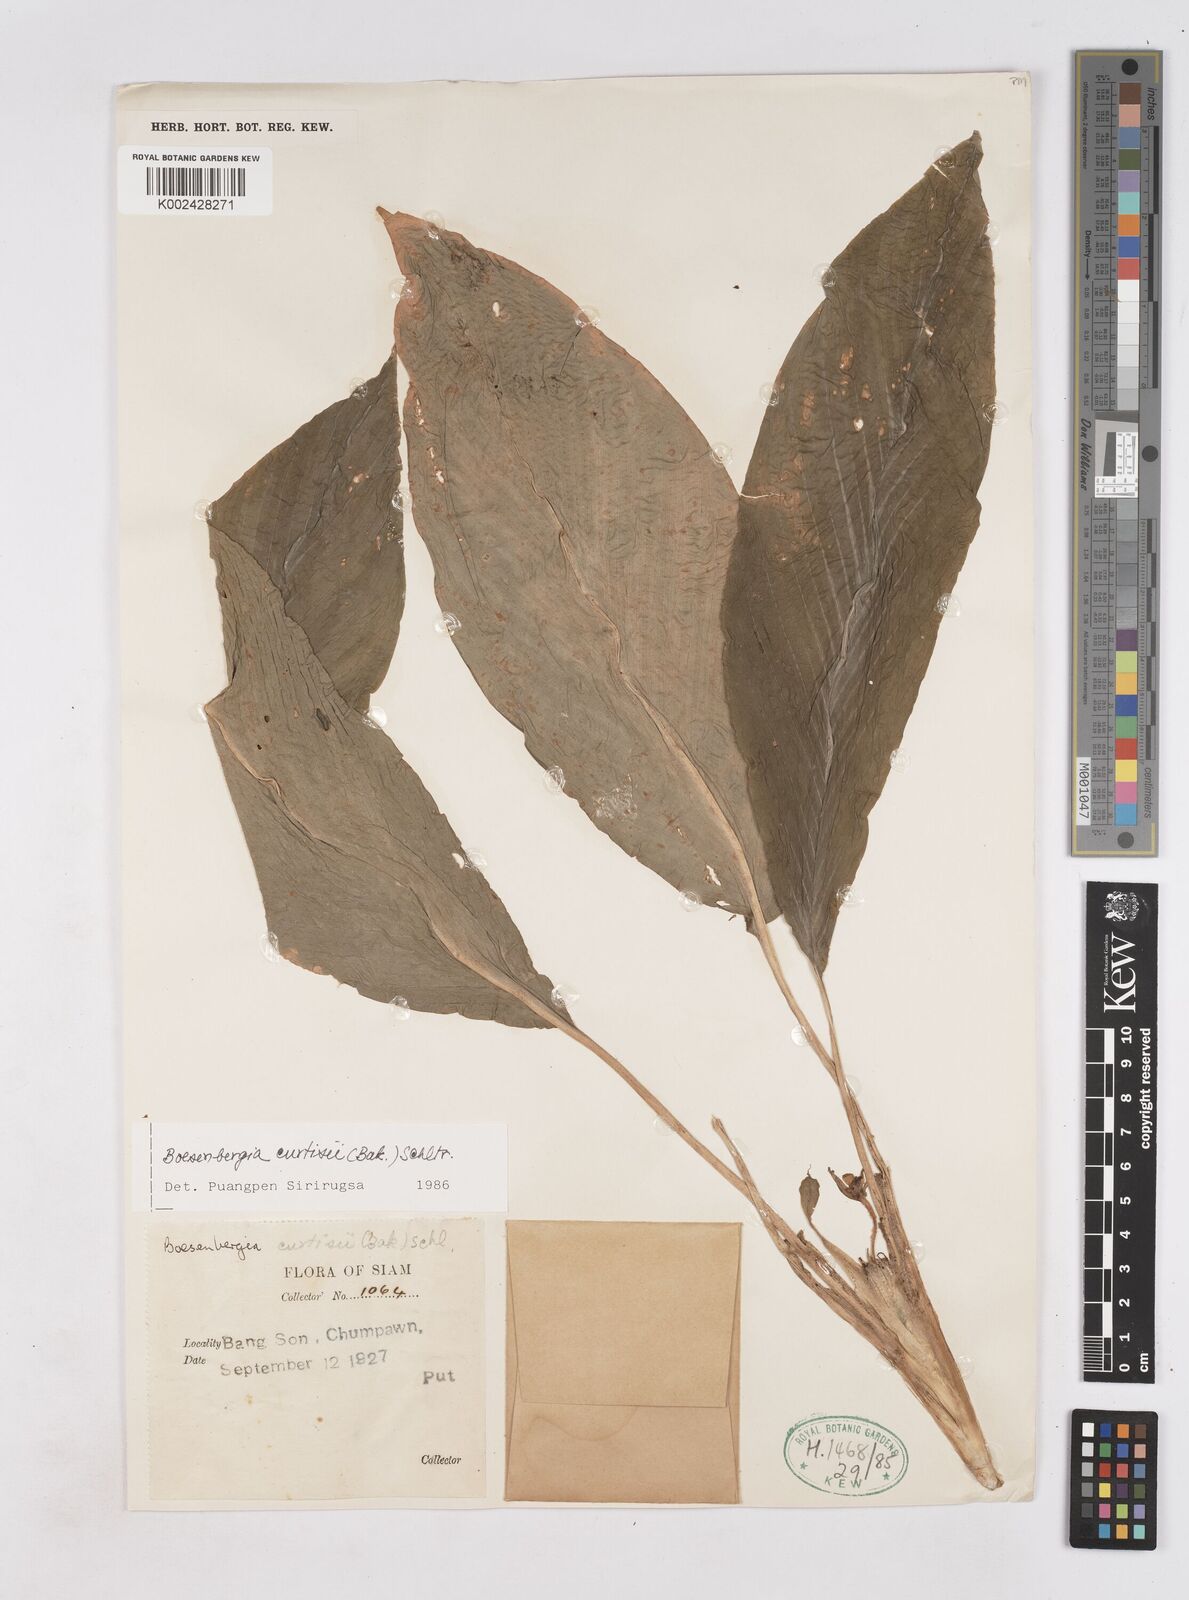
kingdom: Plantae
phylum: Tracheophyta
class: Liliopsida
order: Zingiberales
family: Zingiberaceae
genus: Boesenbergia
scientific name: Boesenbergia curtisii
